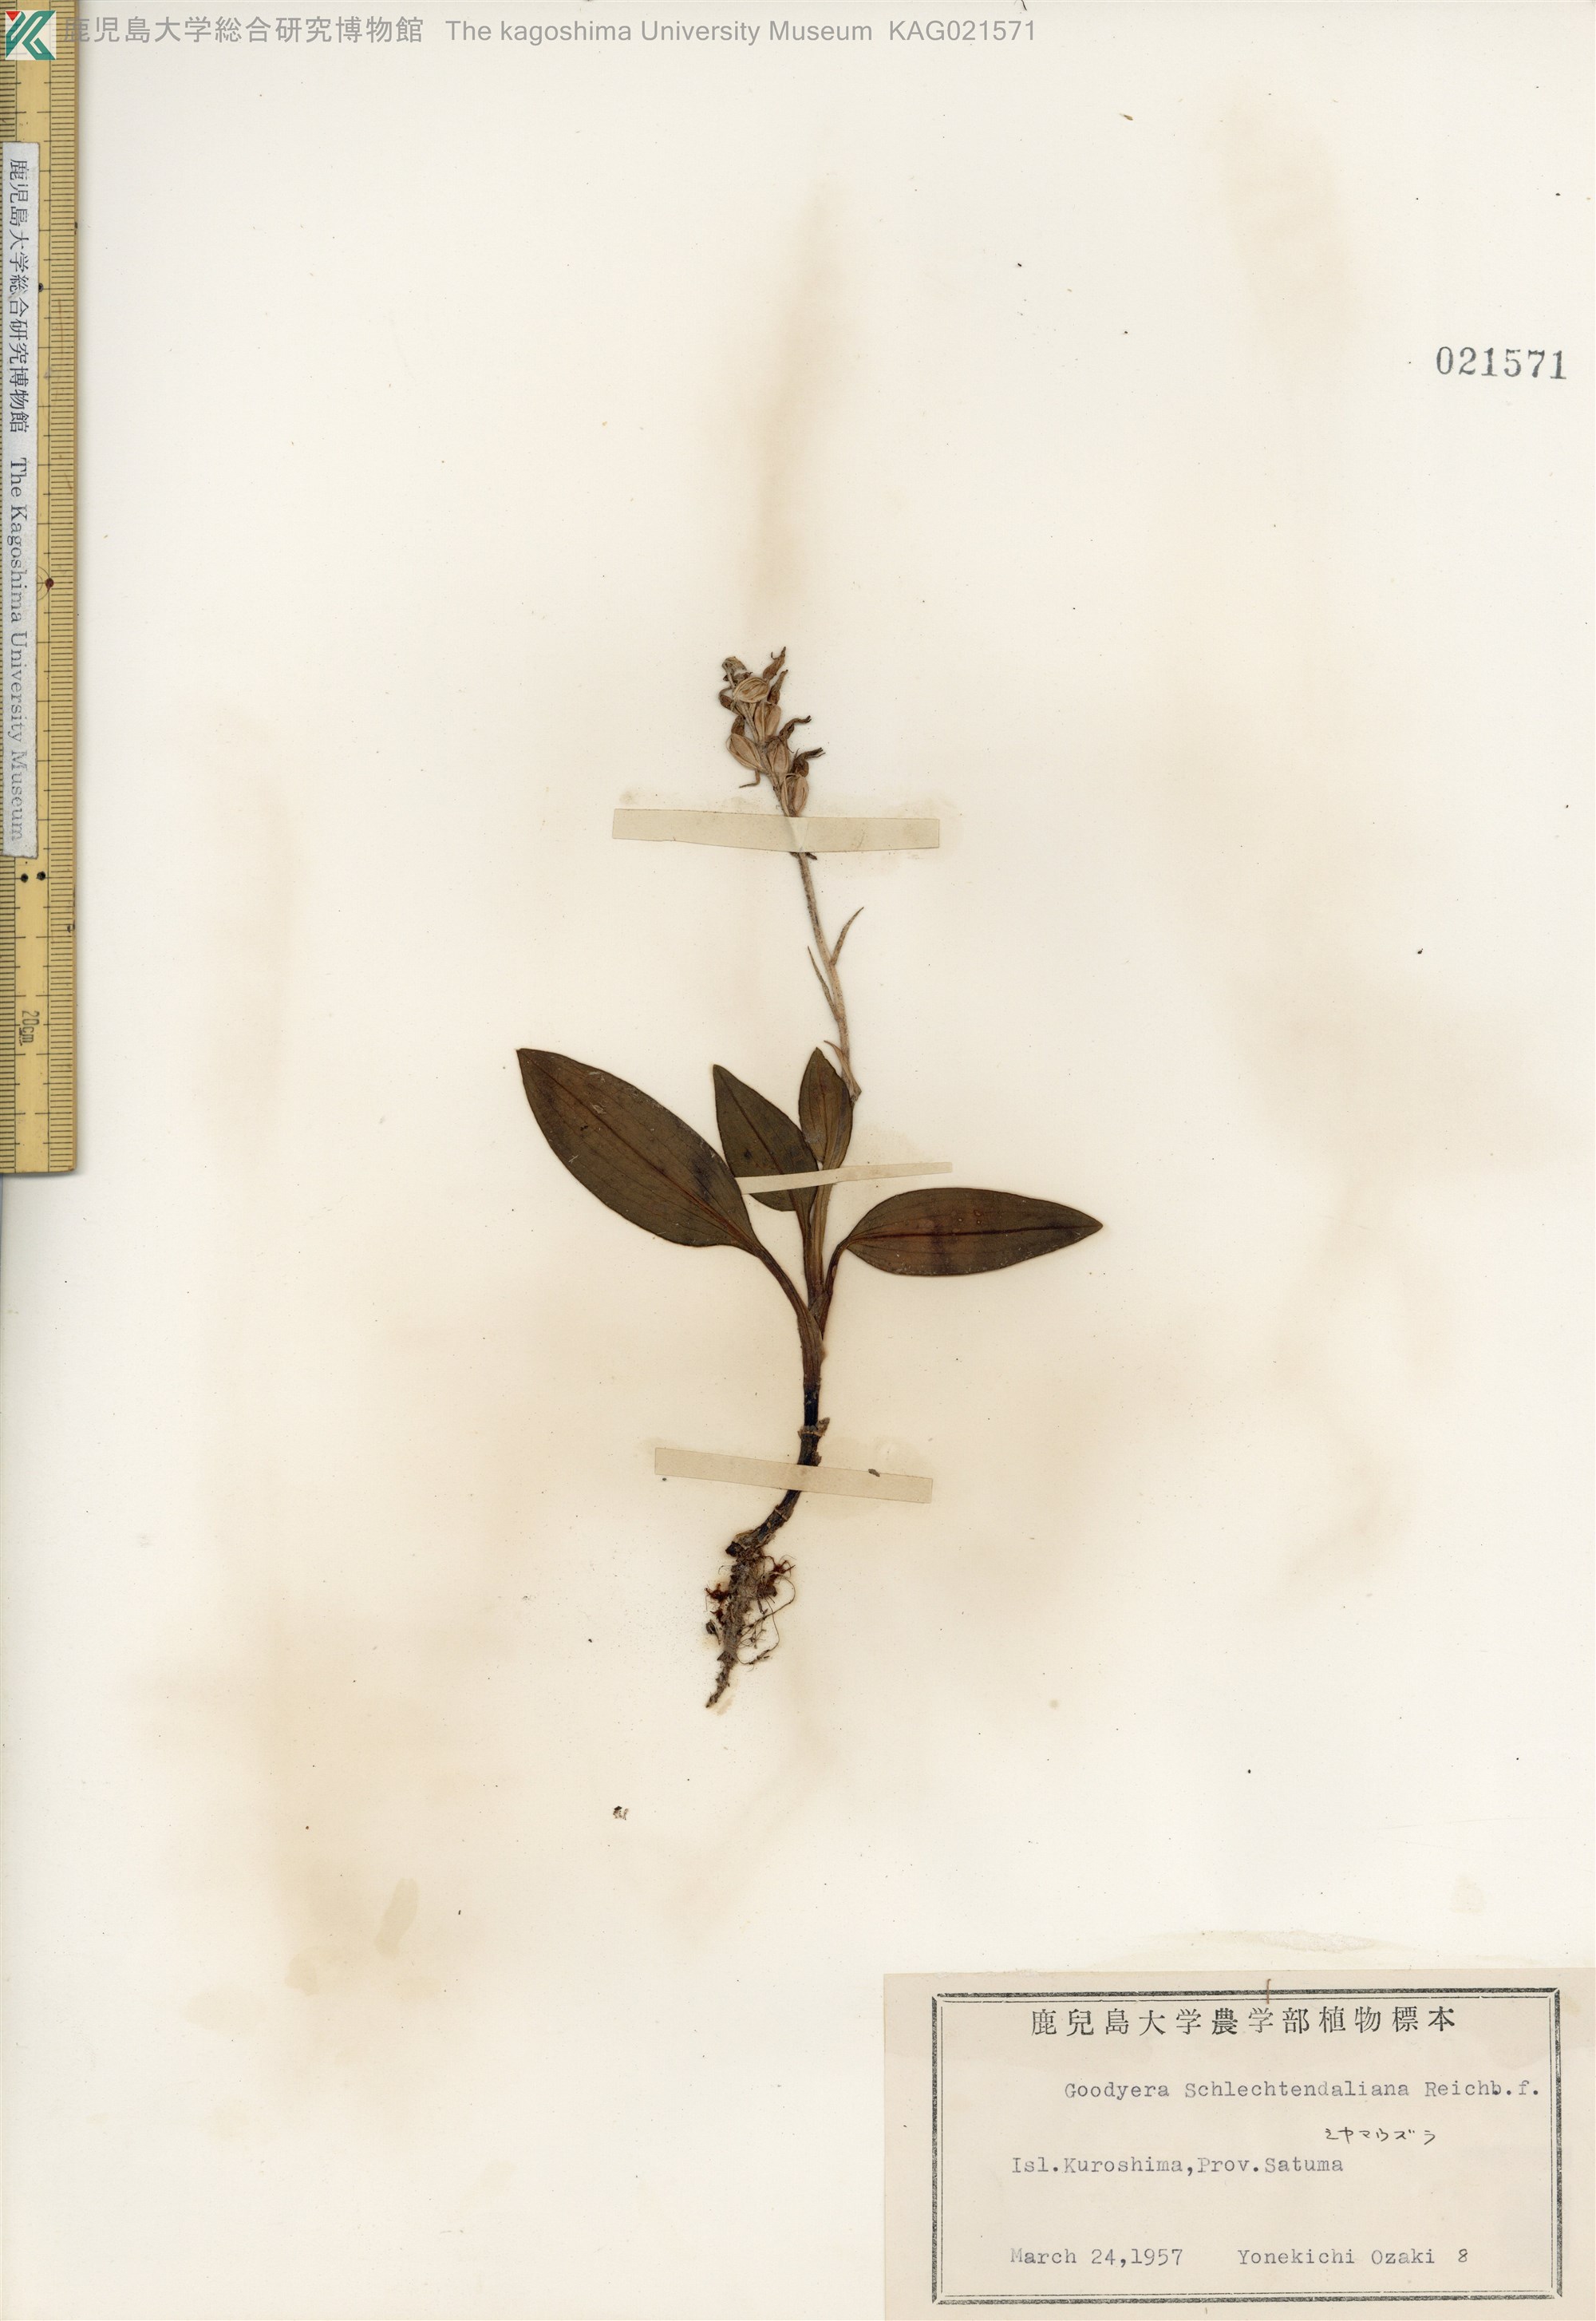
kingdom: Plantae
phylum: Tracheophyta
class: Liliopsida
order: Asparagales
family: Orchidaceae
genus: Goodyera
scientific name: Goodyera schlechtendaliana
